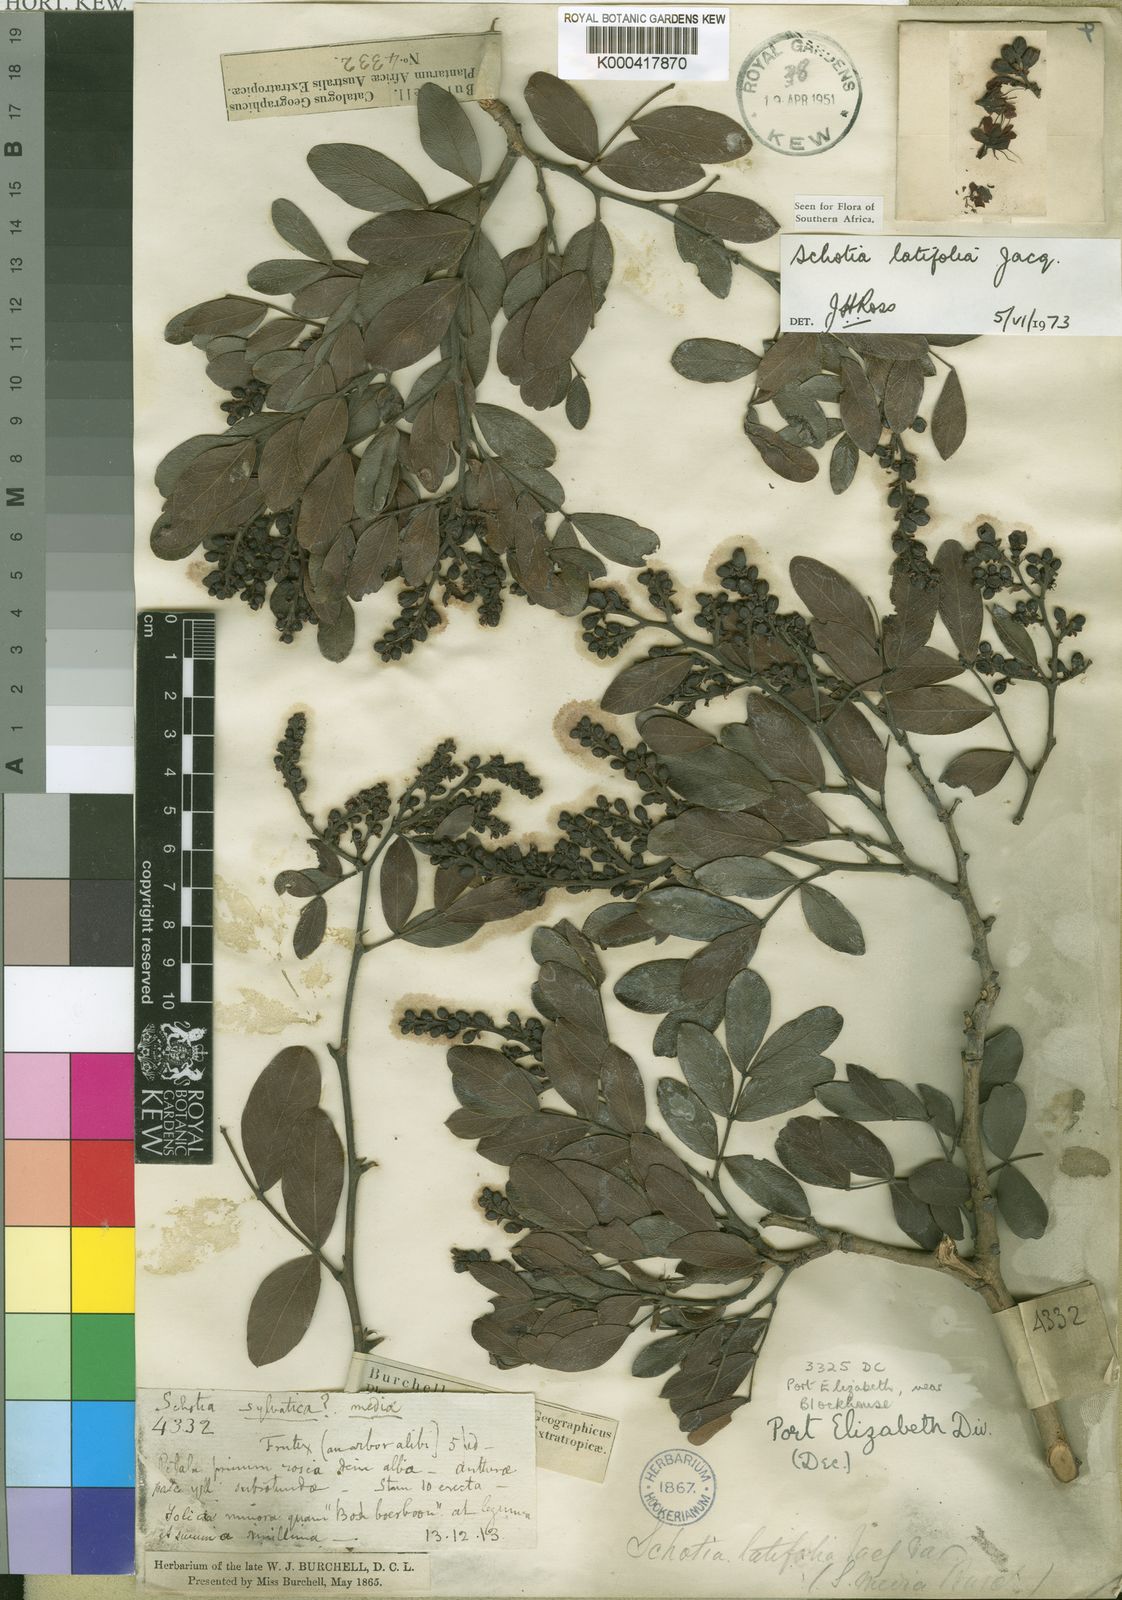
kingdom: Plantae
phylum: Tracheophyta
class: Magnoliopsida
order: Fabales
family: Fabaceae
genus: Schotia
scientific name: Schotia latifolia
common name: Bush boer-bean
